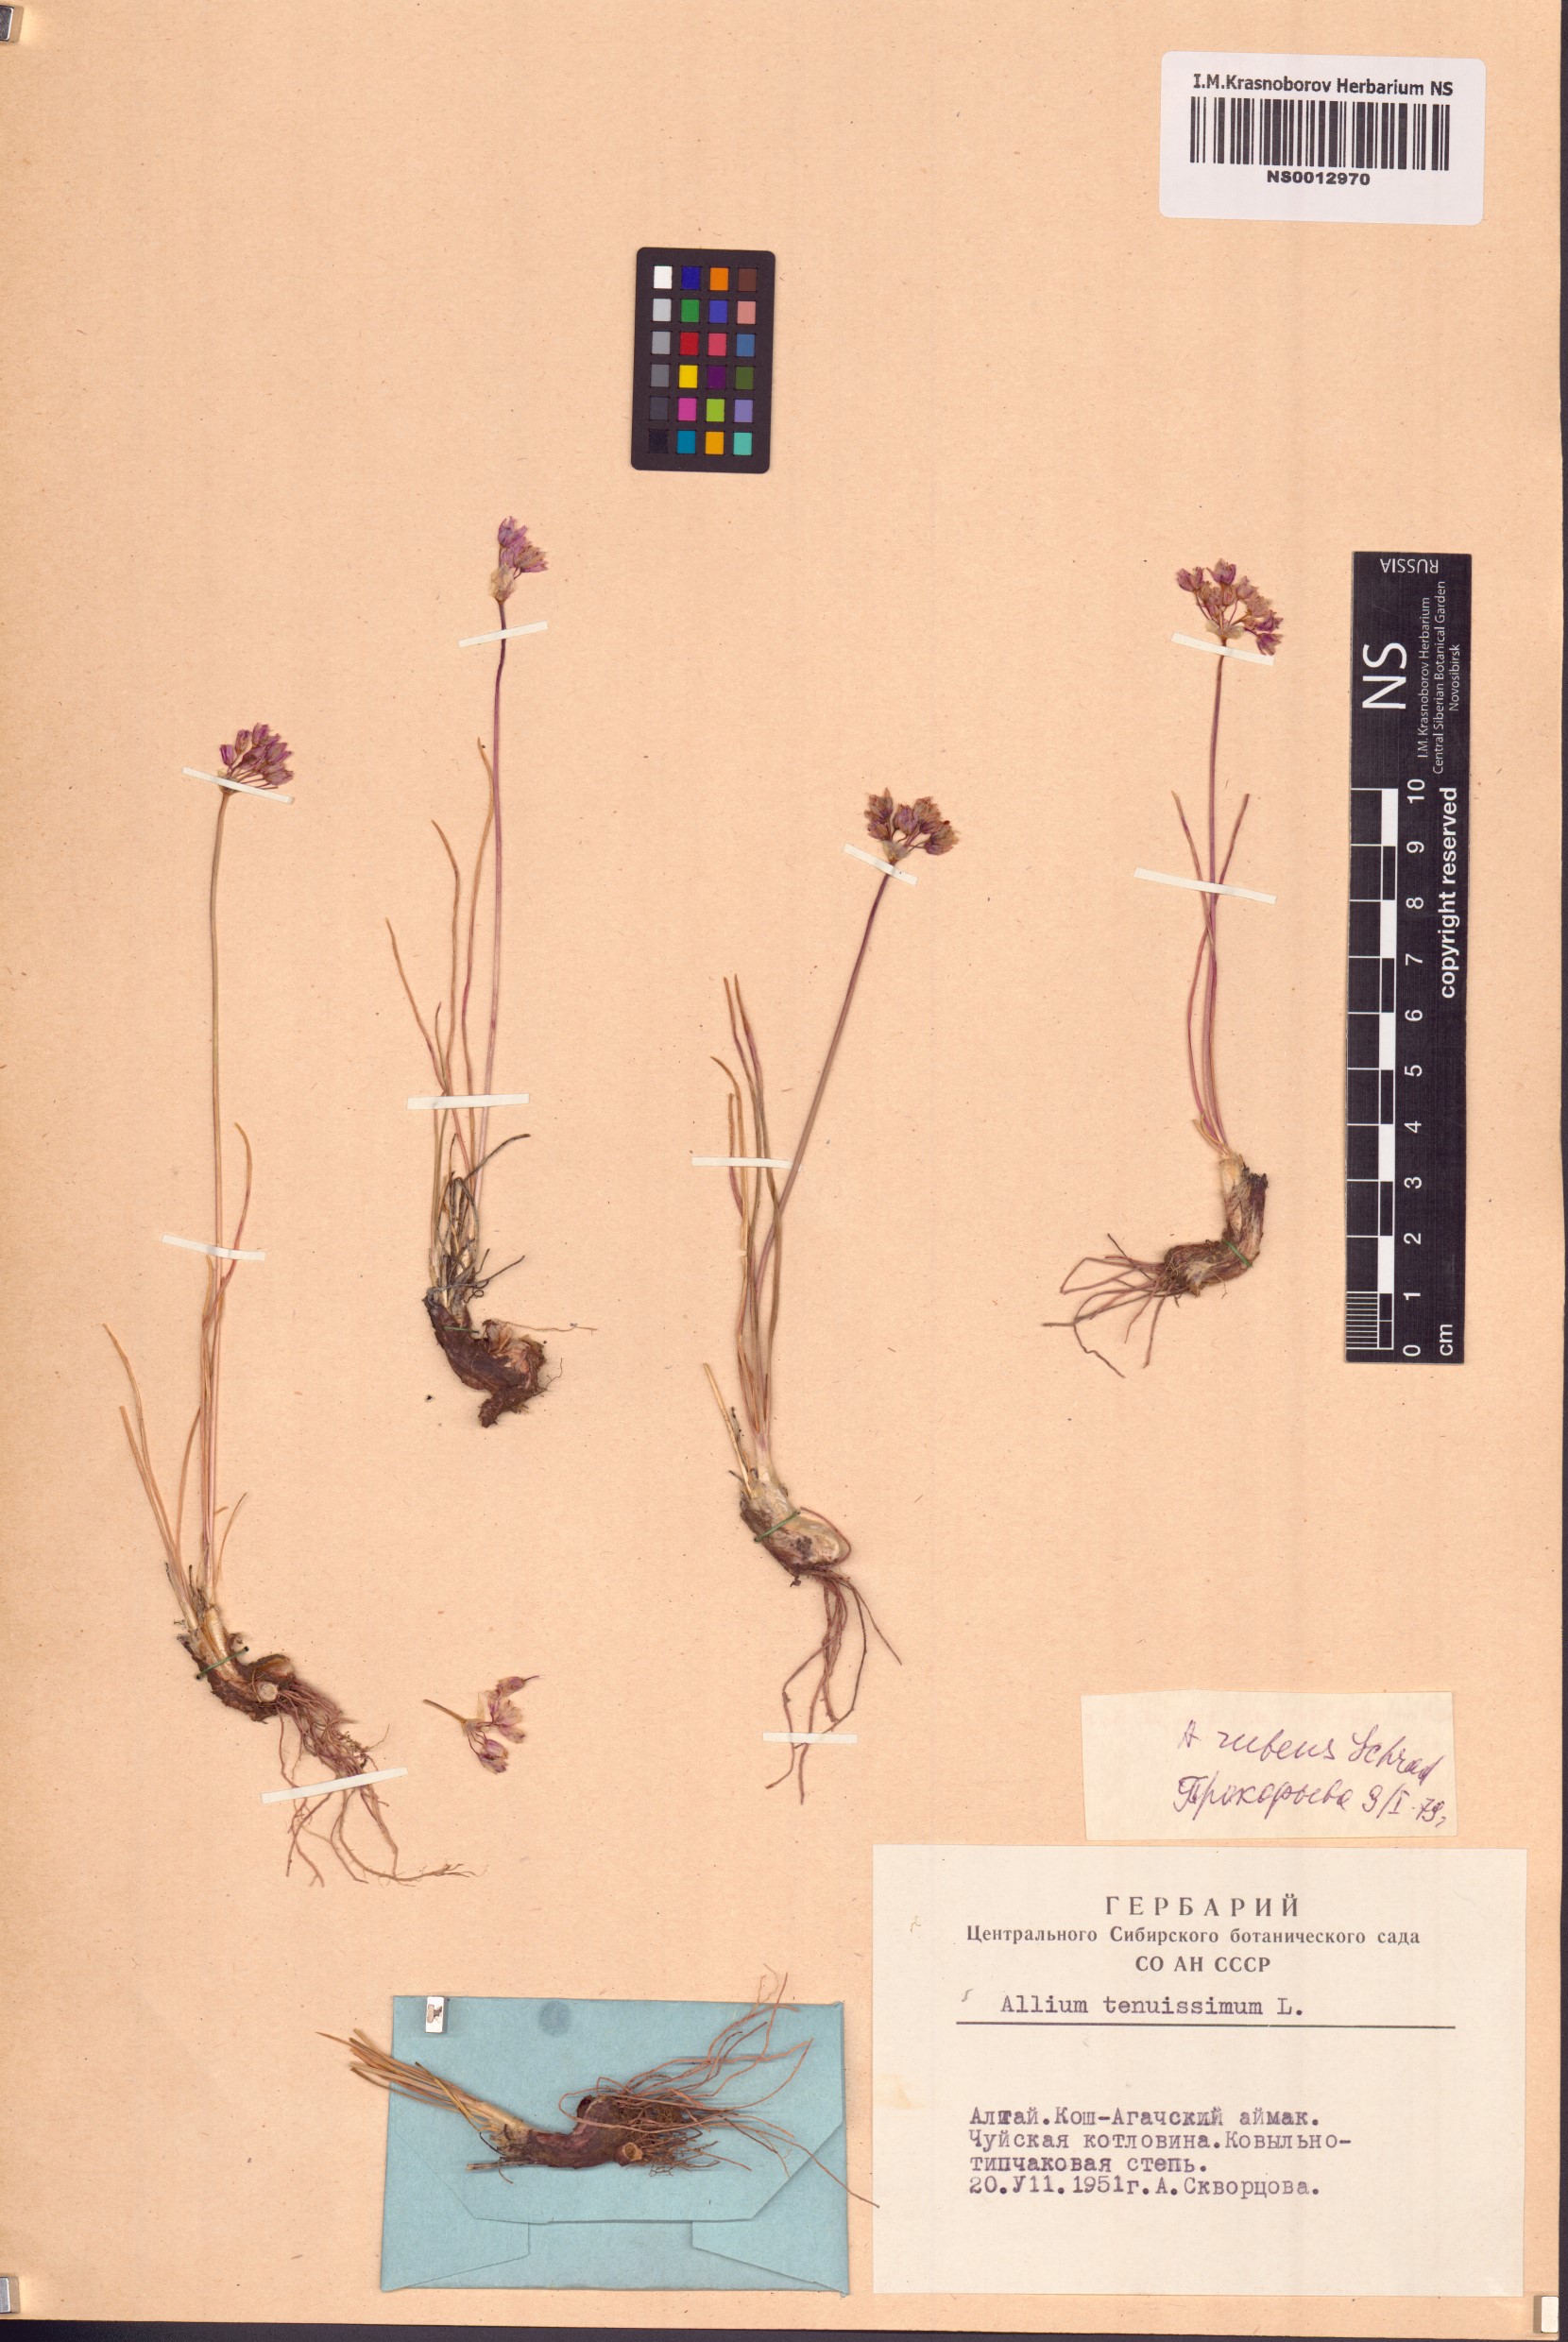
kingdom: Plantae
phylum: Tracheophyta
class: Liliopsida
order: Asparagales
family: Amaryllidaceae
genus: Allium
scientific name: Allium rubens
